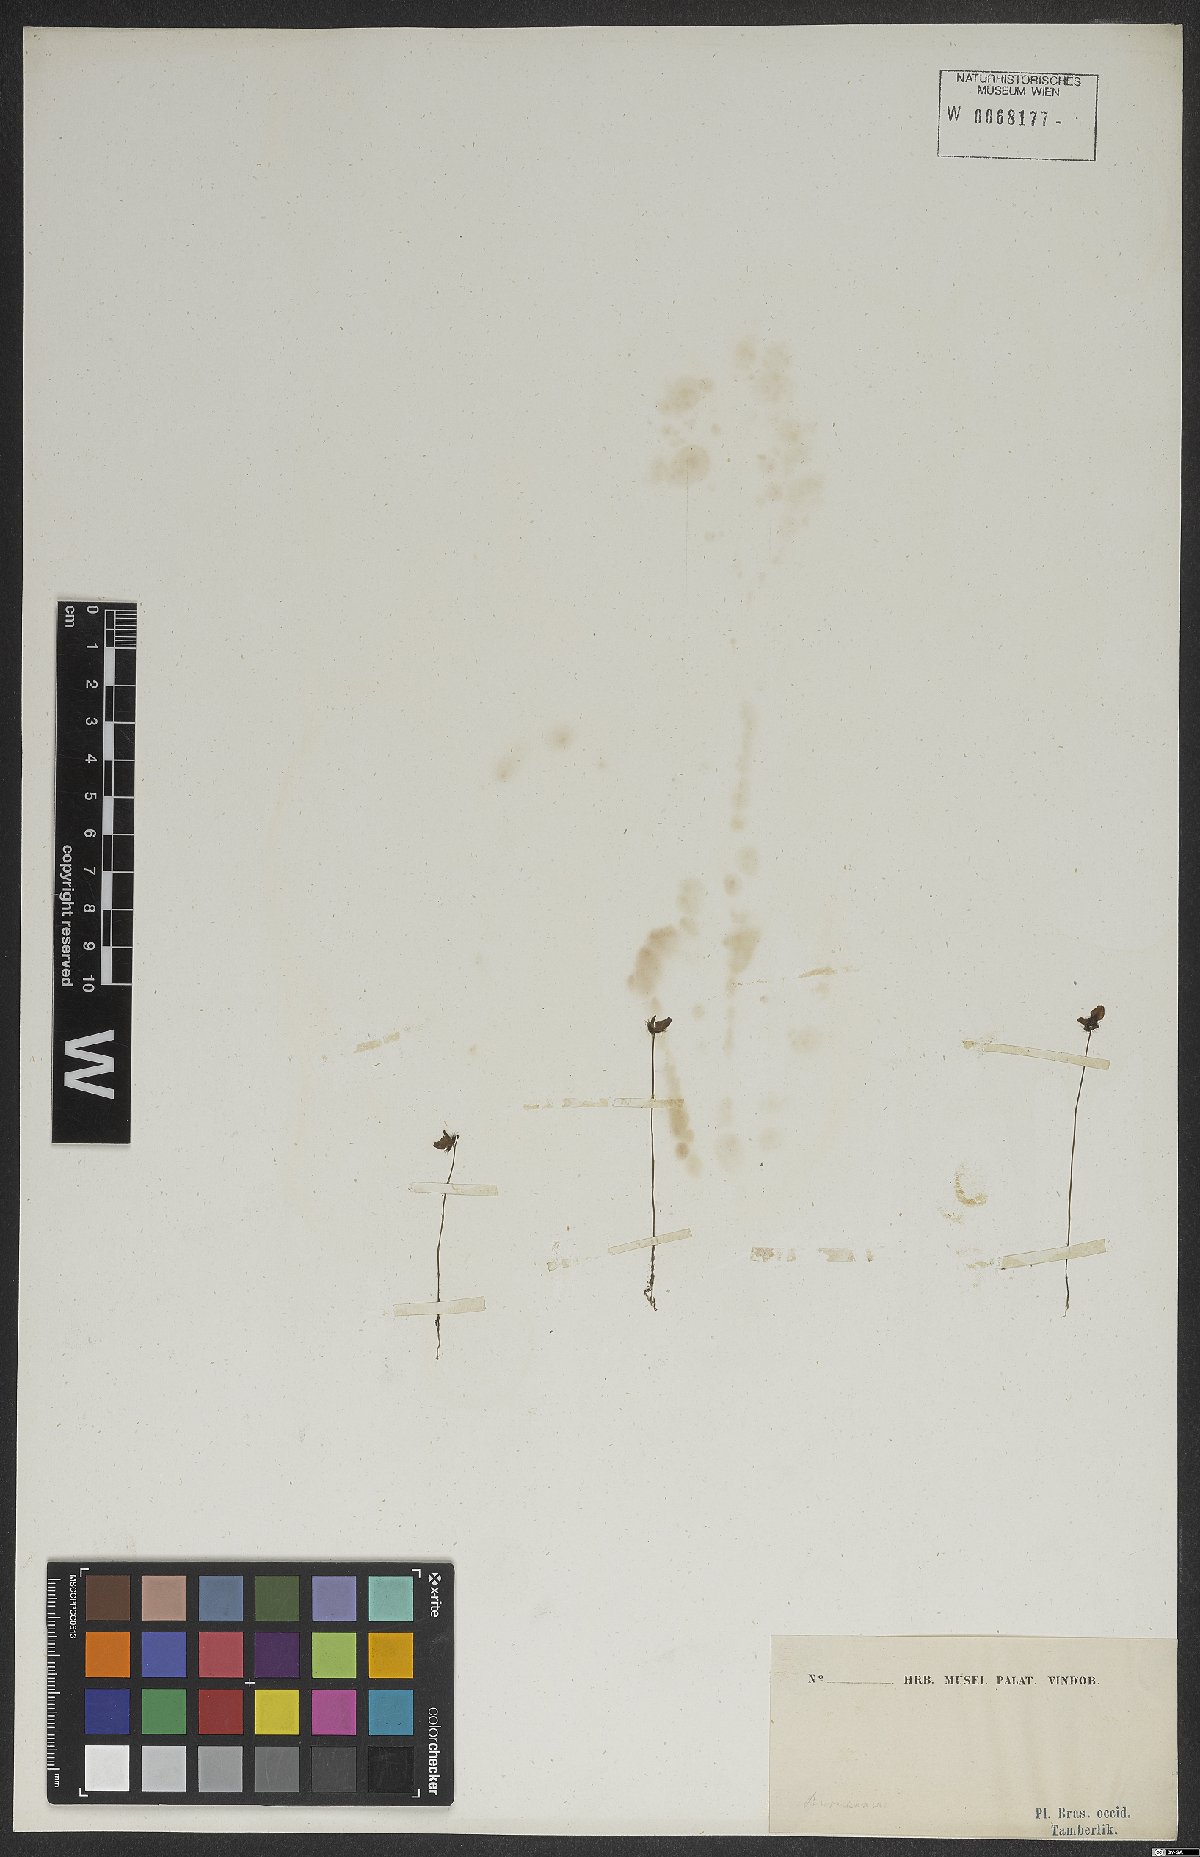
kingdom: Plantae
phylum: Tracheophyta
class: Magnoliopsida
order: Lamiales
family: Lentibulariaceae
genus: Utricularia
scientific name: Utricularia
